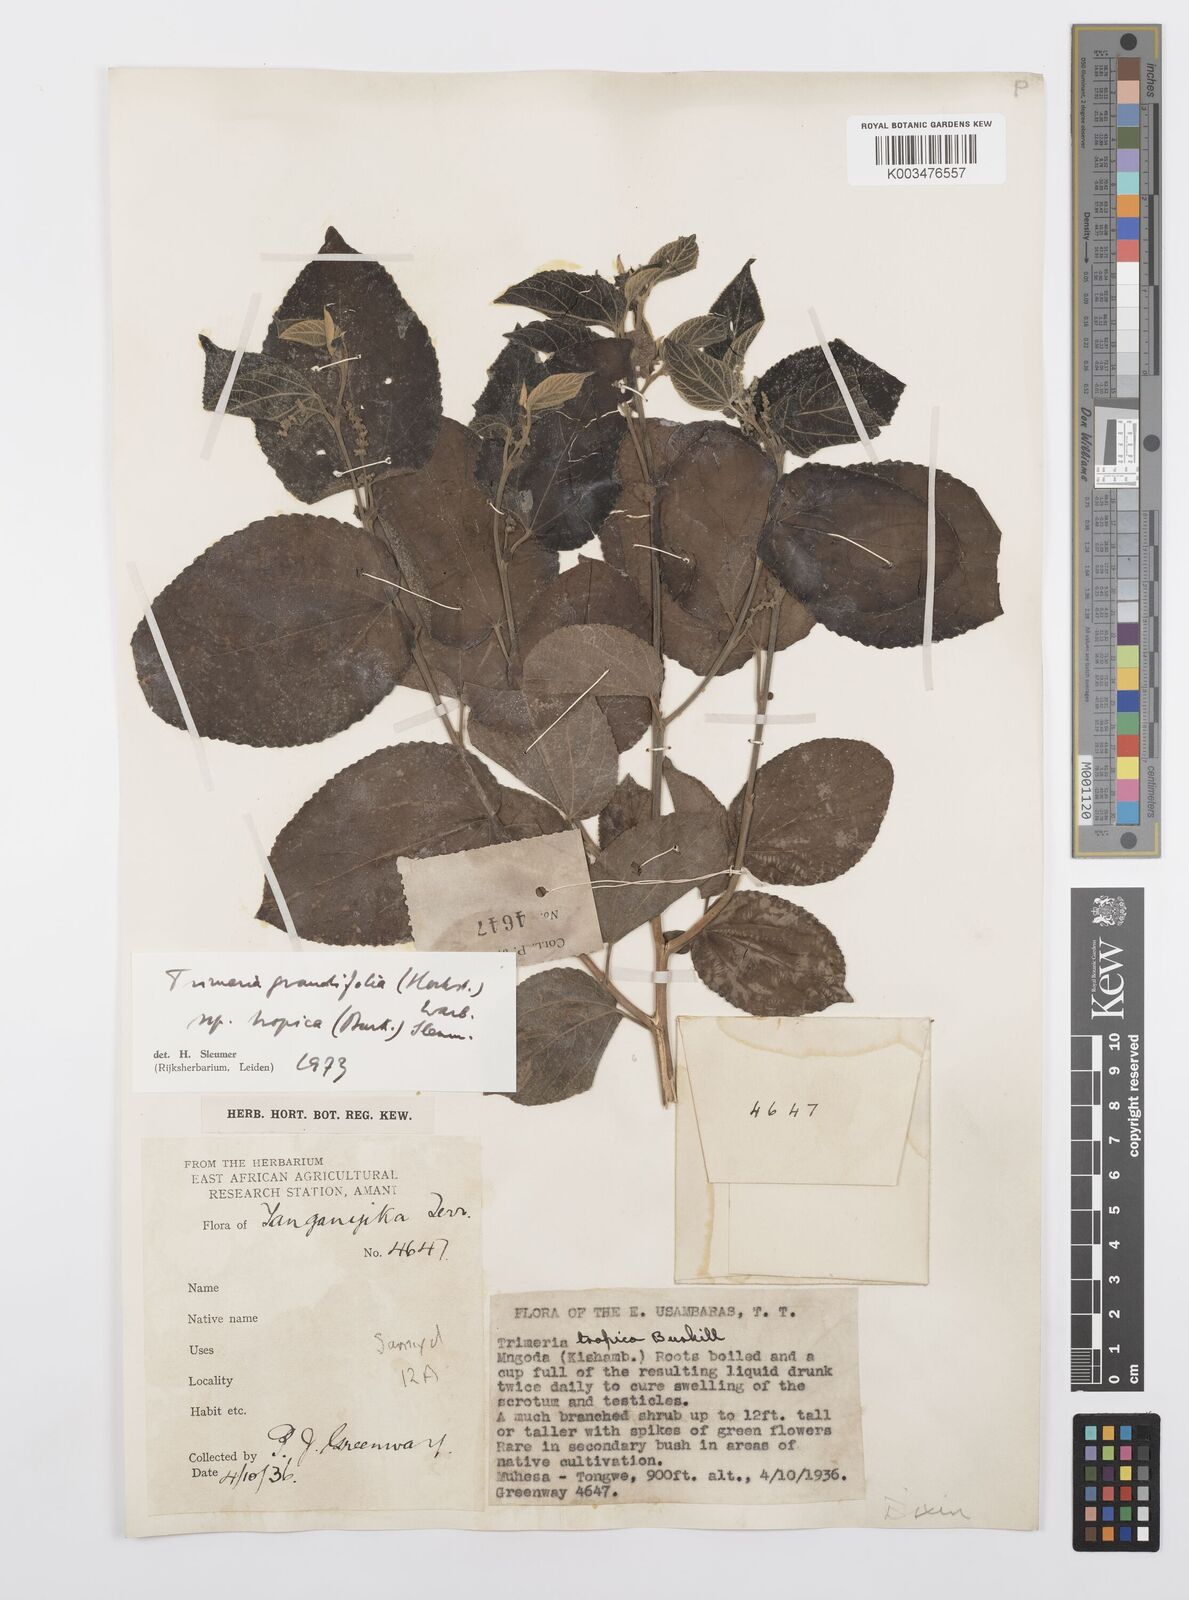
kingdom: Plantae
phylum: Tracheophyta
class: Magnoliopsida
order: Malpighiales
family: Salicaceae
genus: Trimeria
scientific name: Trimeria grandifolia
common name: Wild mulberry
